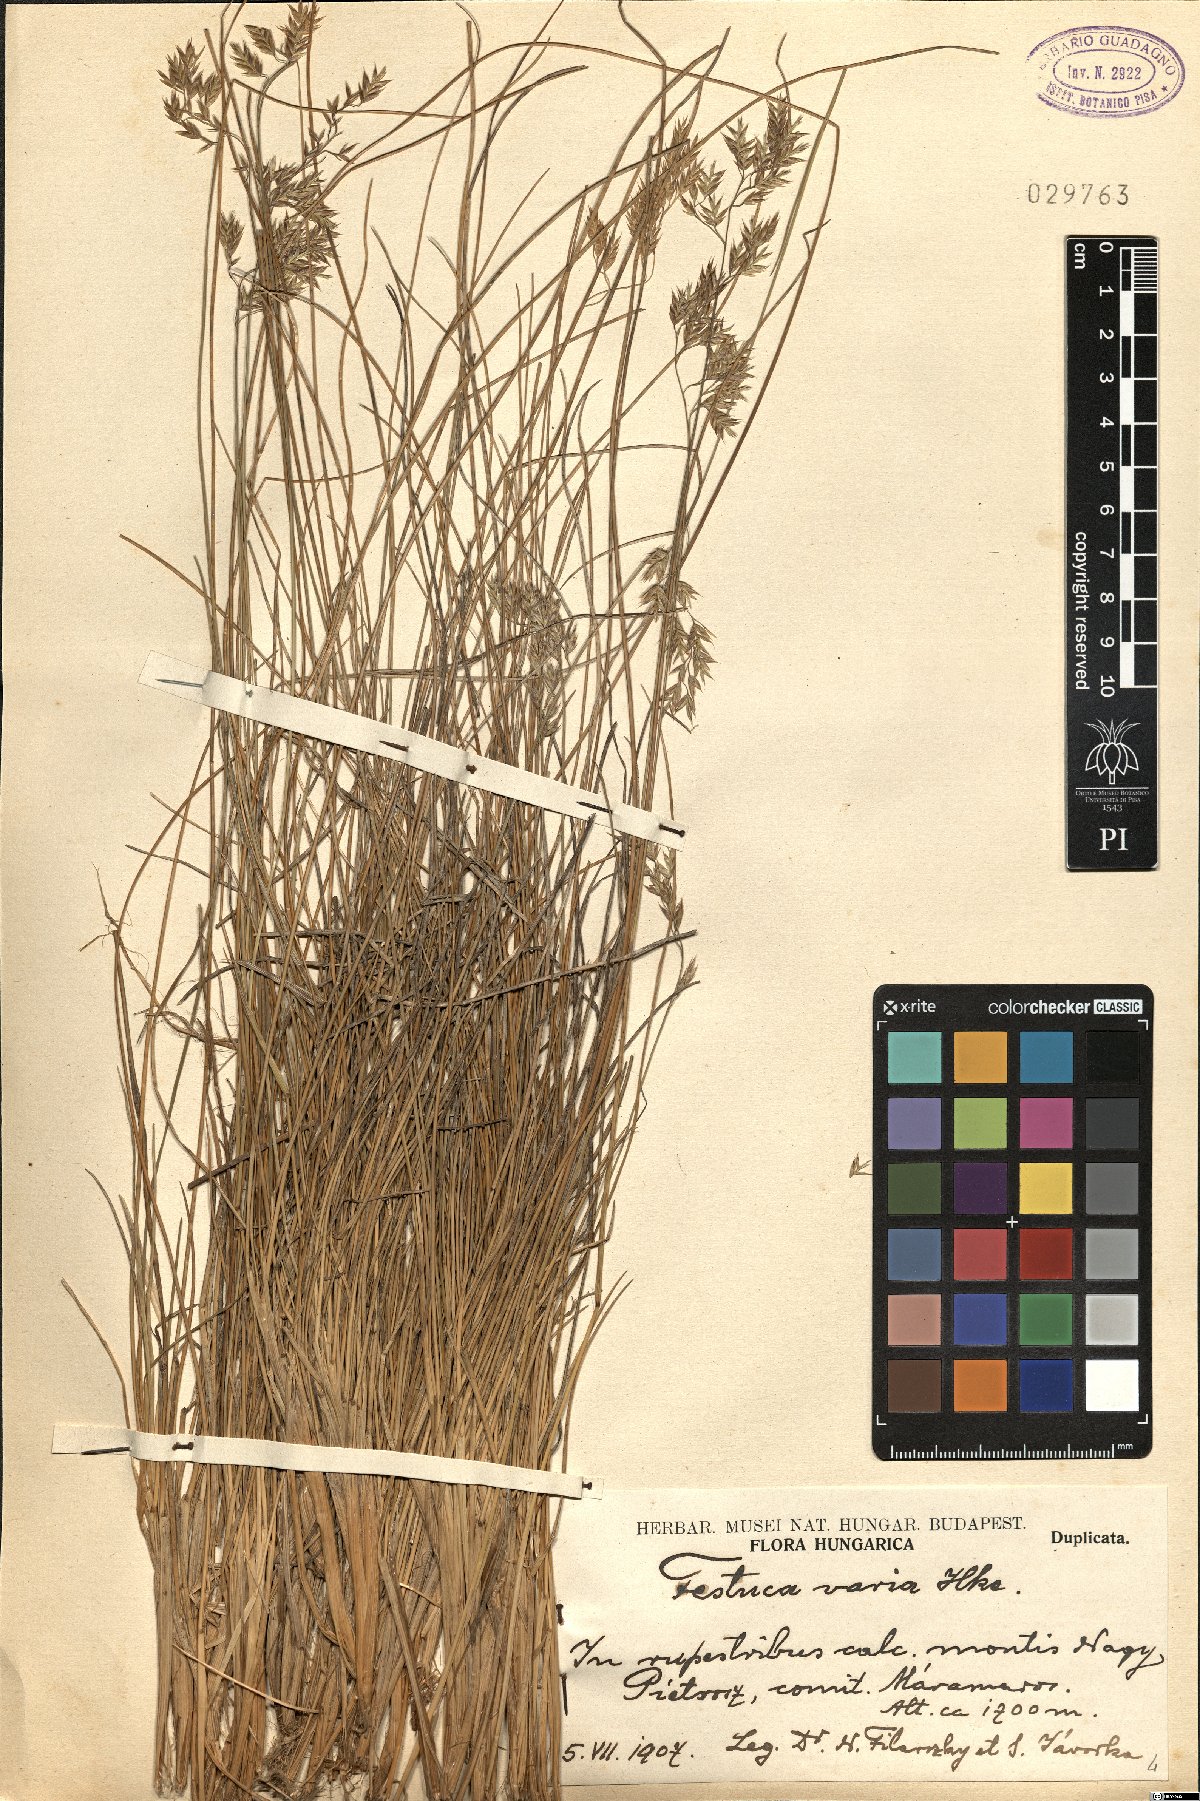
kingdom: Plantae
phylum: Tracheophyta
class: Liliopsida
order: Poales
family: Poaceae
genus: Festuca
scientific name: Festuca varia
